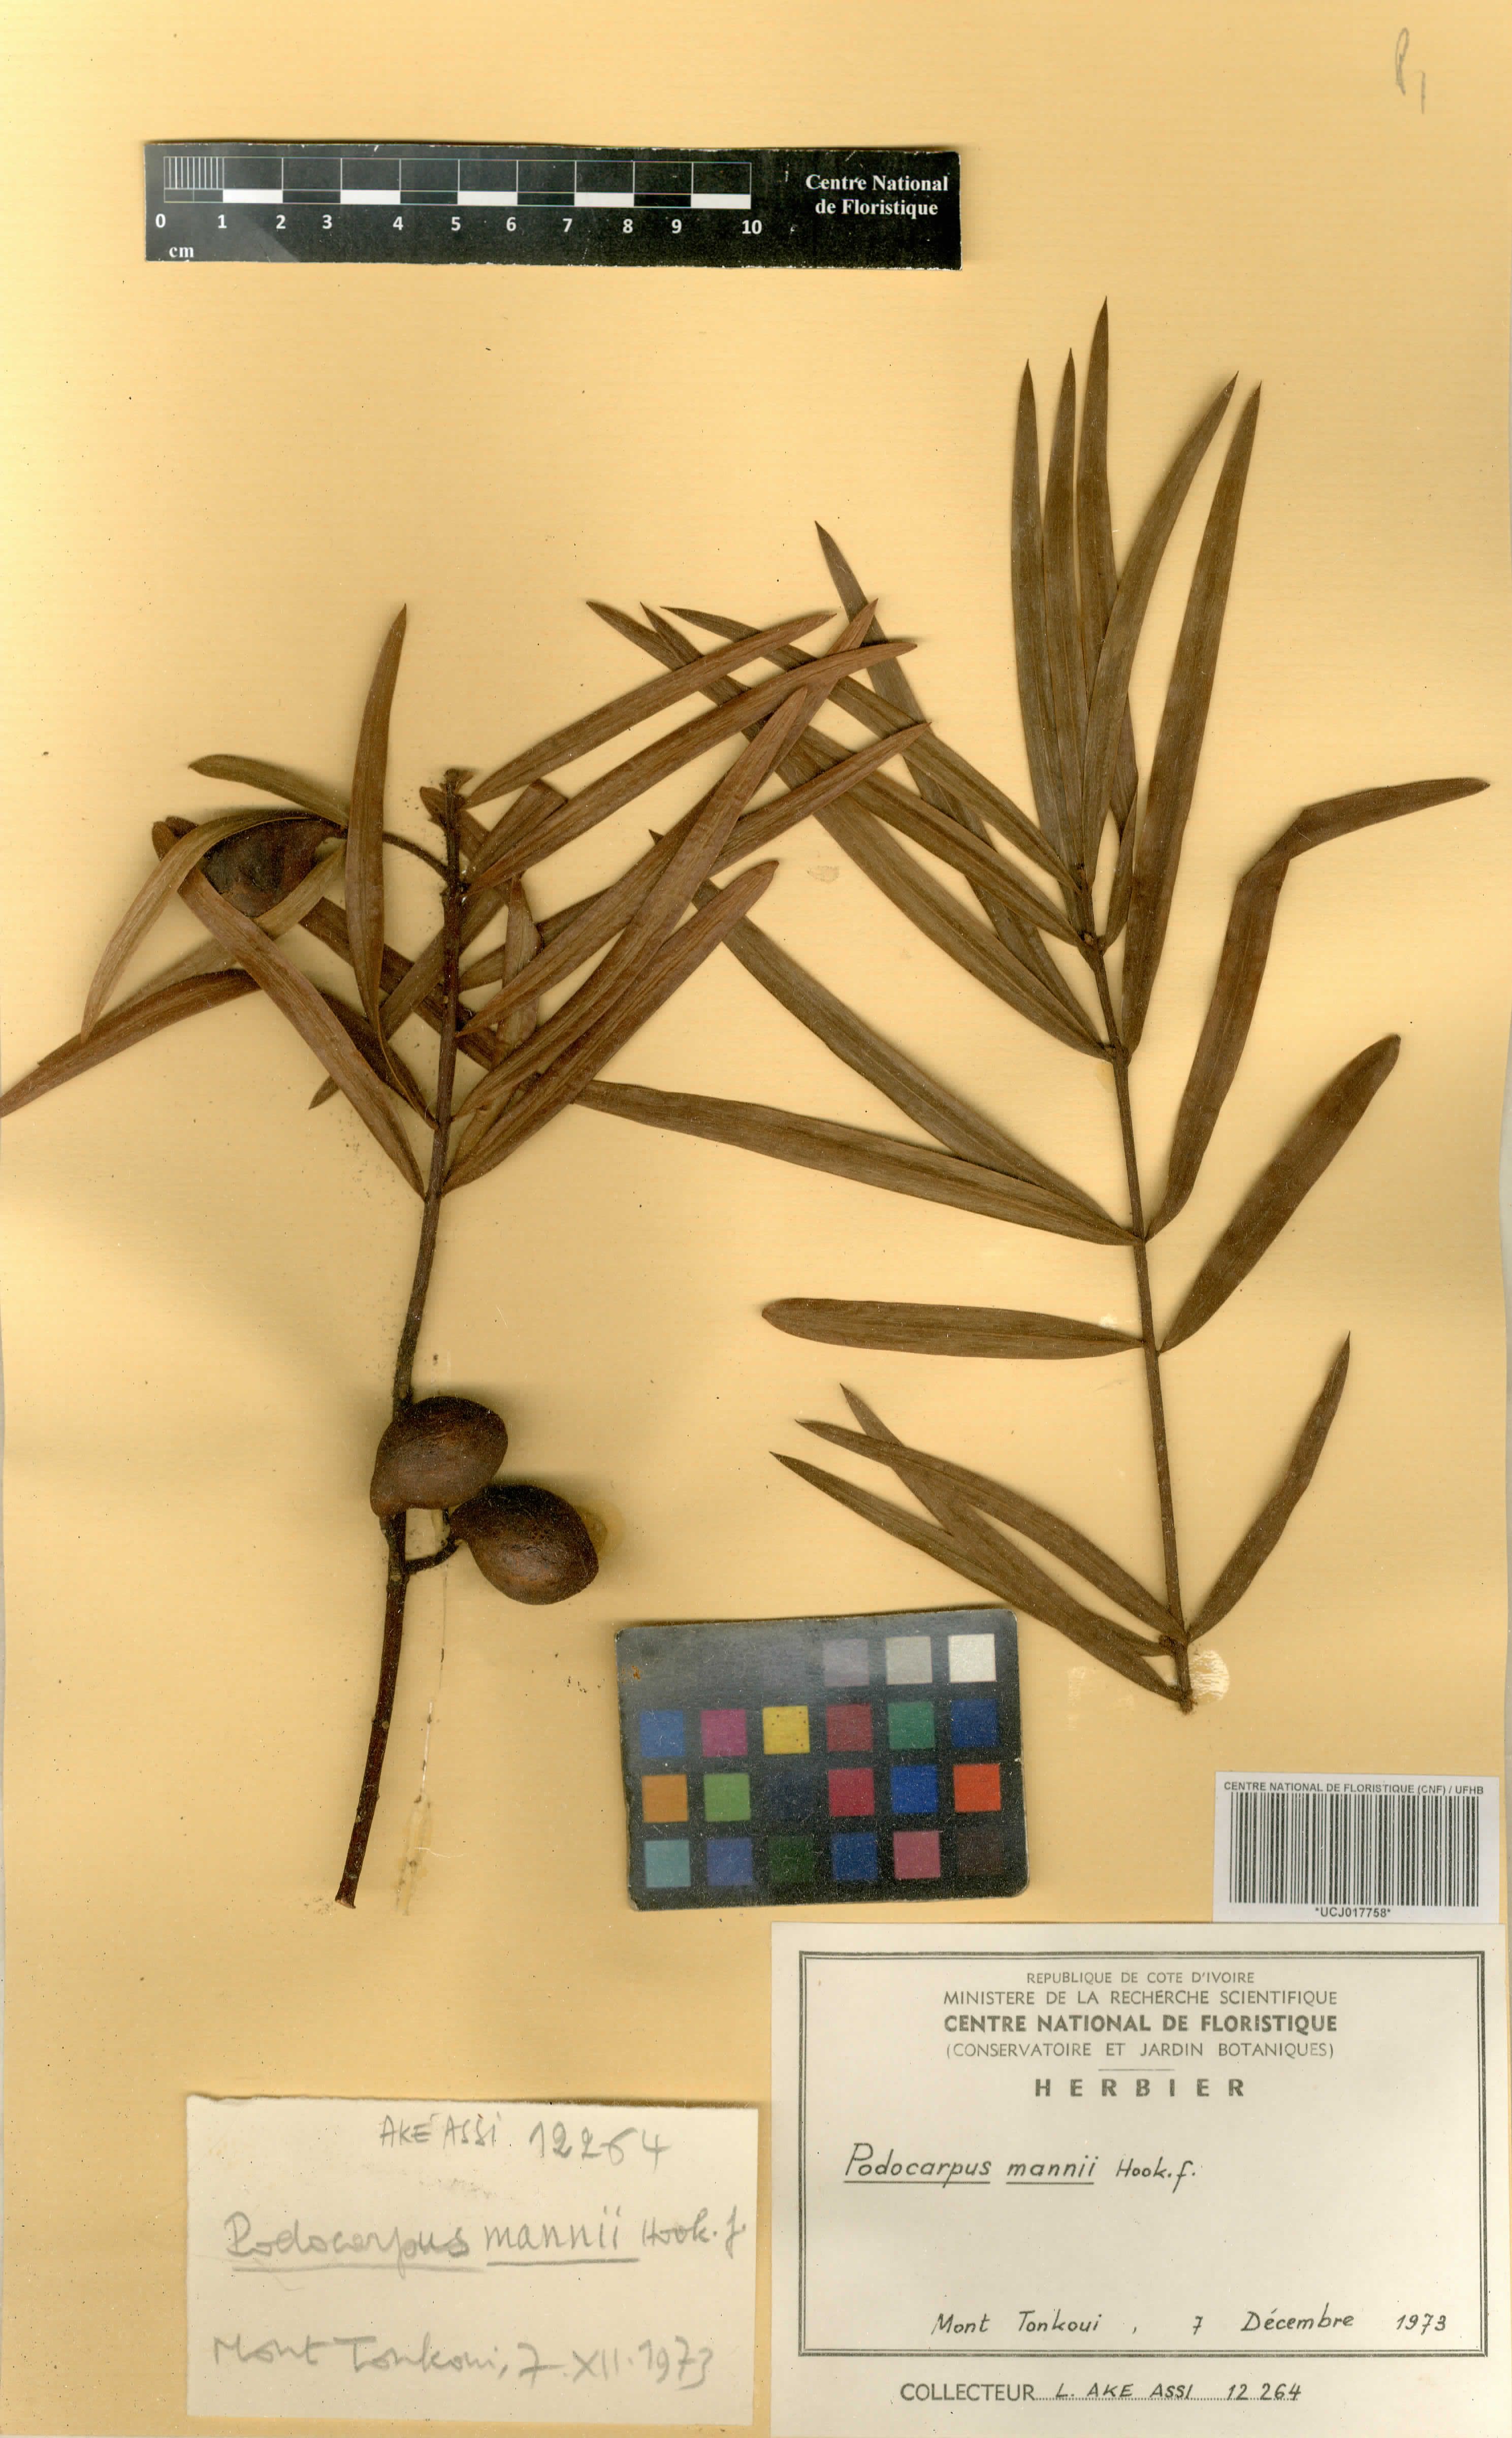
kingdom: Plantae
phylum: Tracheophyta
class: Pinopsida
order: Pinales
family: Podocarpaceae
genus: Afrocarpus
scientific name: Afrocarpus mannii
